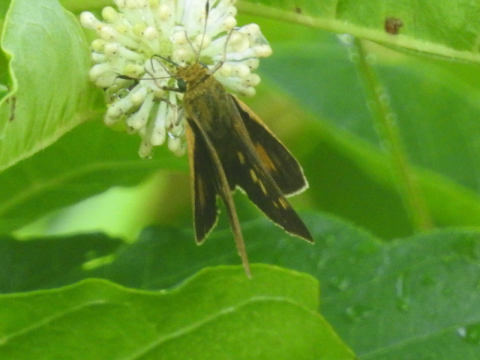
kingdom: Animalia
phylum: Arthropoda
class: Insecta
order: Lepidoptera
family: Hesperiidae
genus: Euphyes
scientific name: Euphyes
